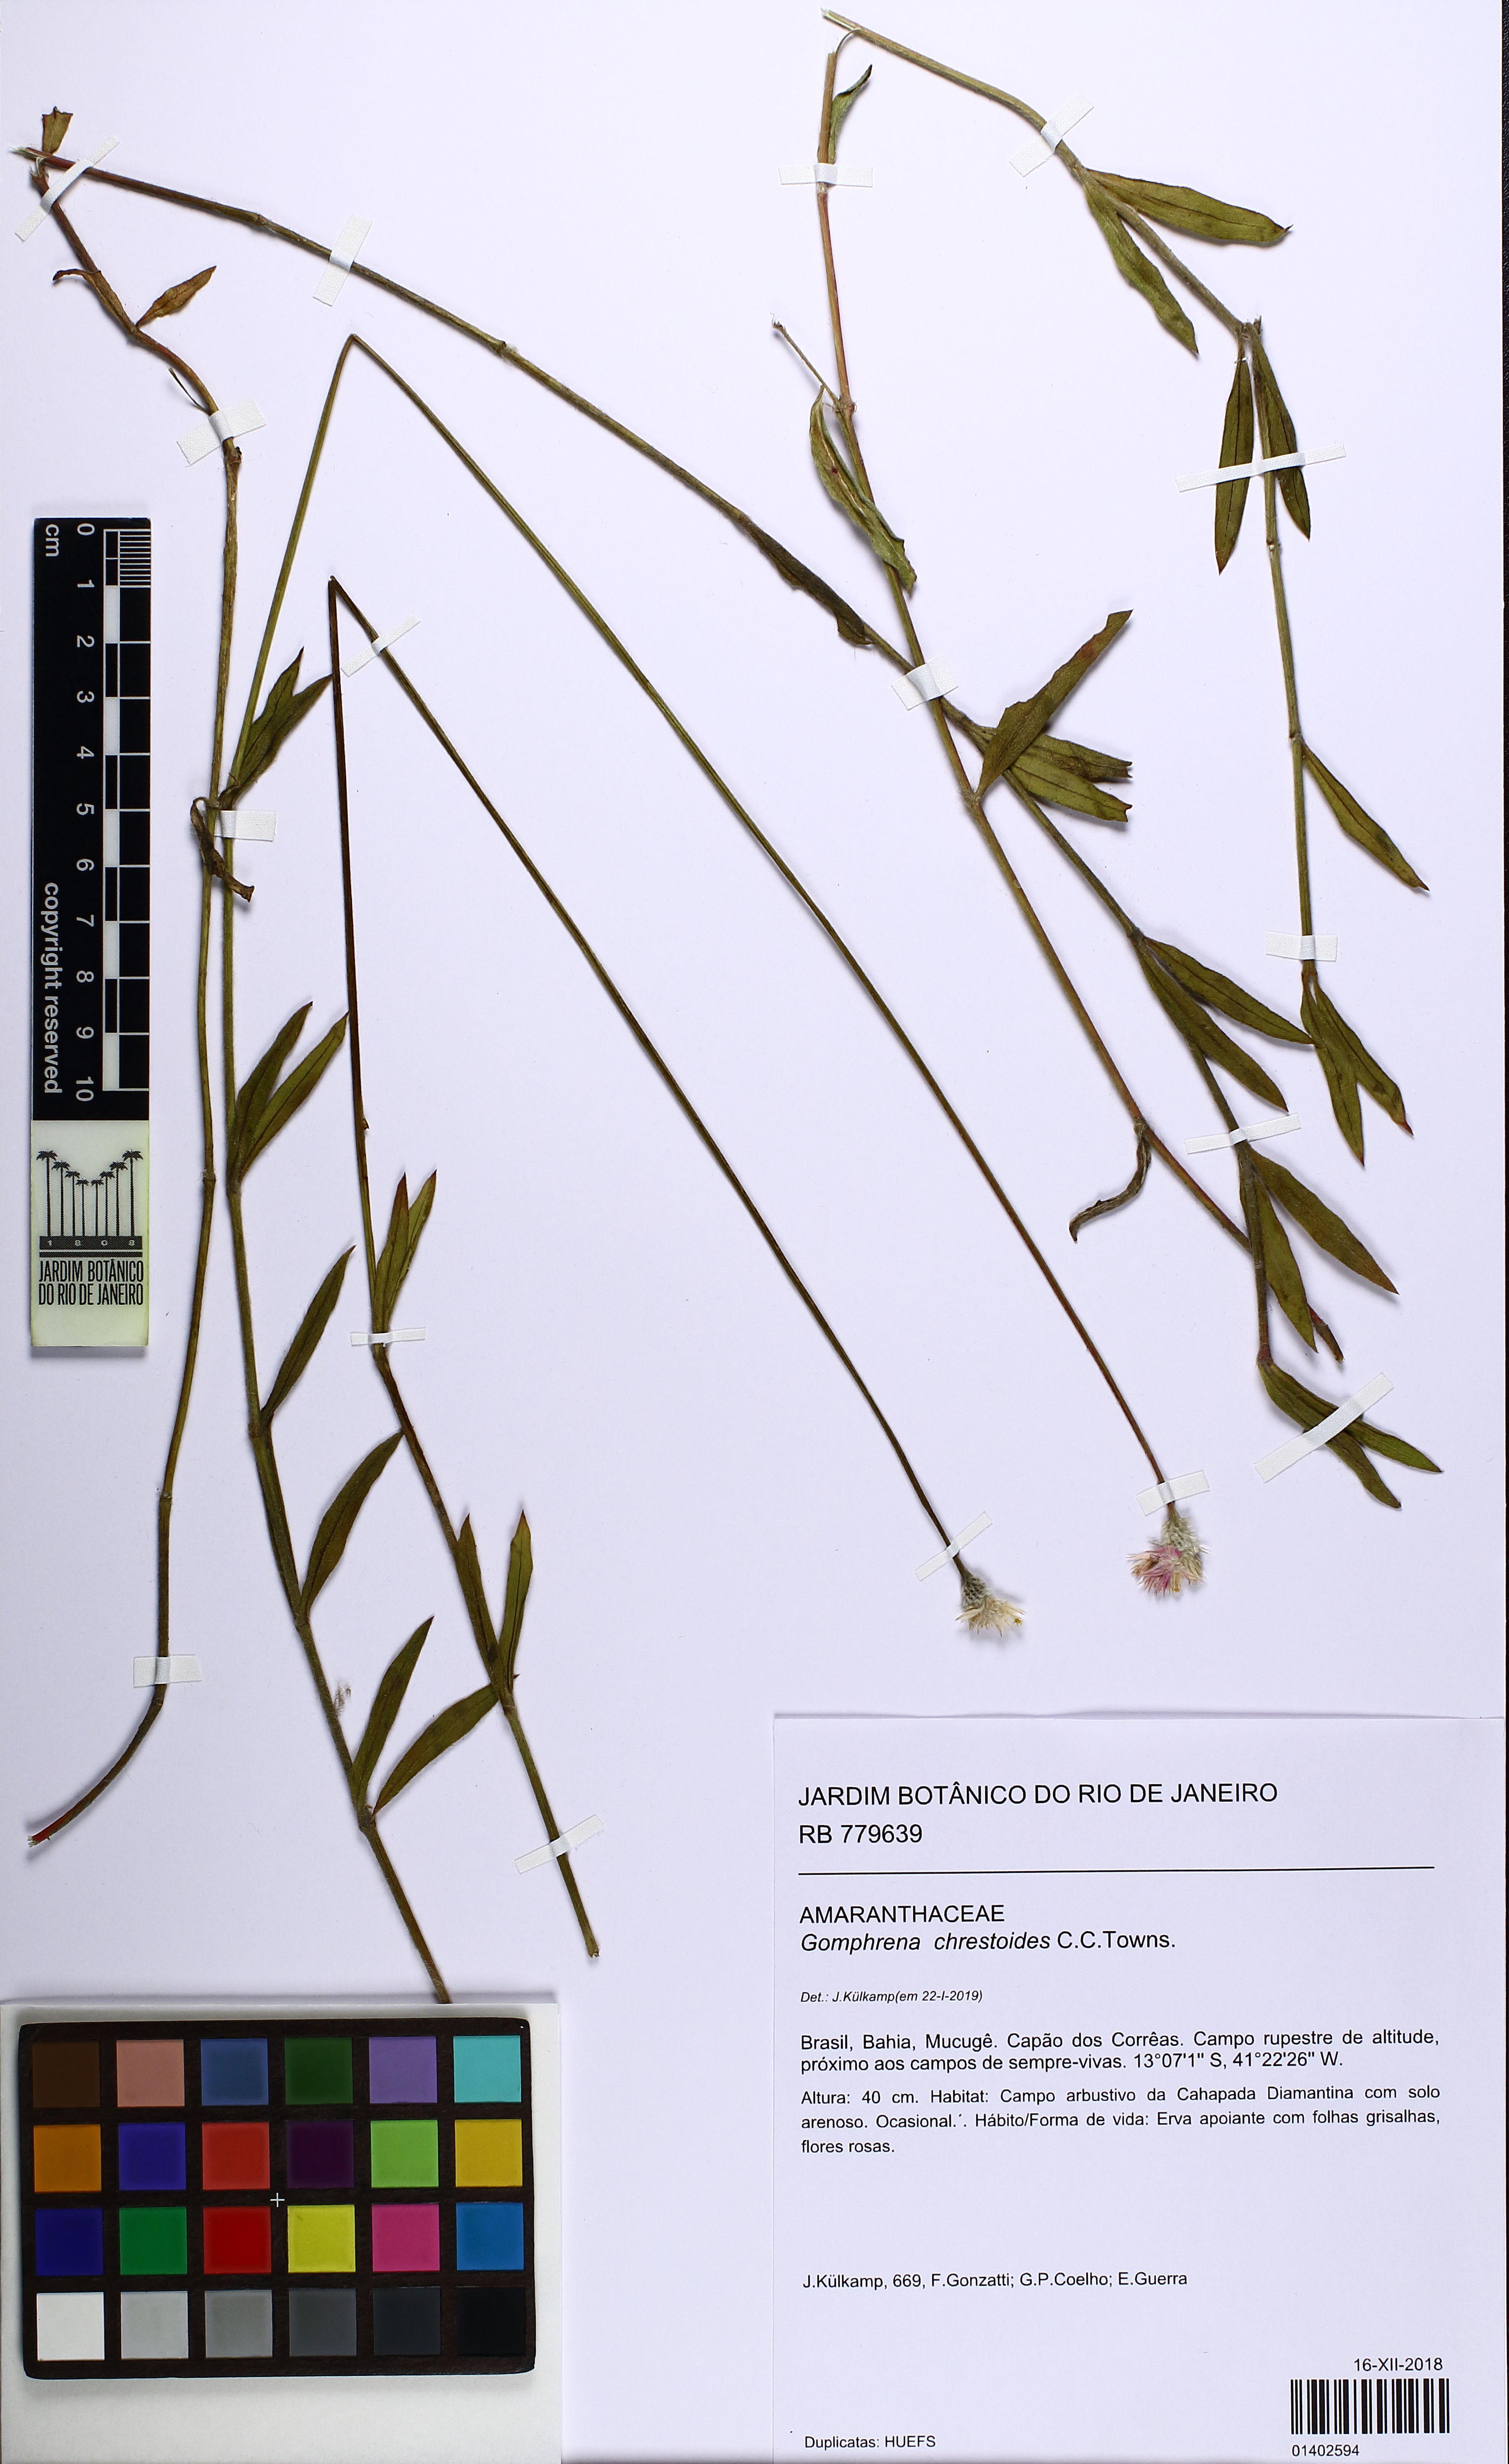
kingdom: Plantae
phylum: Tracheophyta
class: Magnoliopsida
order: Caryophyllales
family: Amaranthaceae
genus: Gomphrena
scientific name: Gomphrena chrestoides
